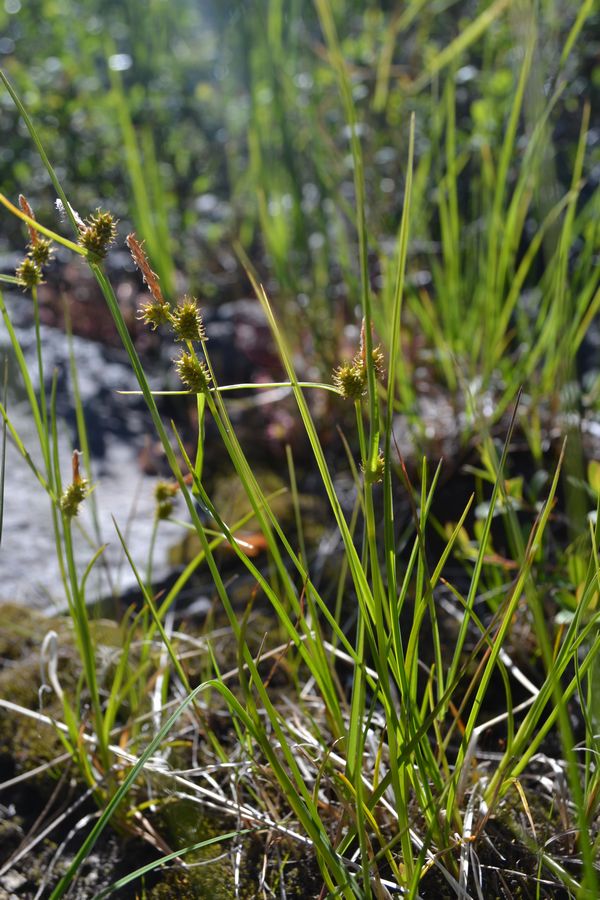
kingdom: Plantae
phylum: Tracheophyta
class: Liliopsida
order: Poales
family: Cyperaceae
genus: Carex
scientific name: Carex oederi
